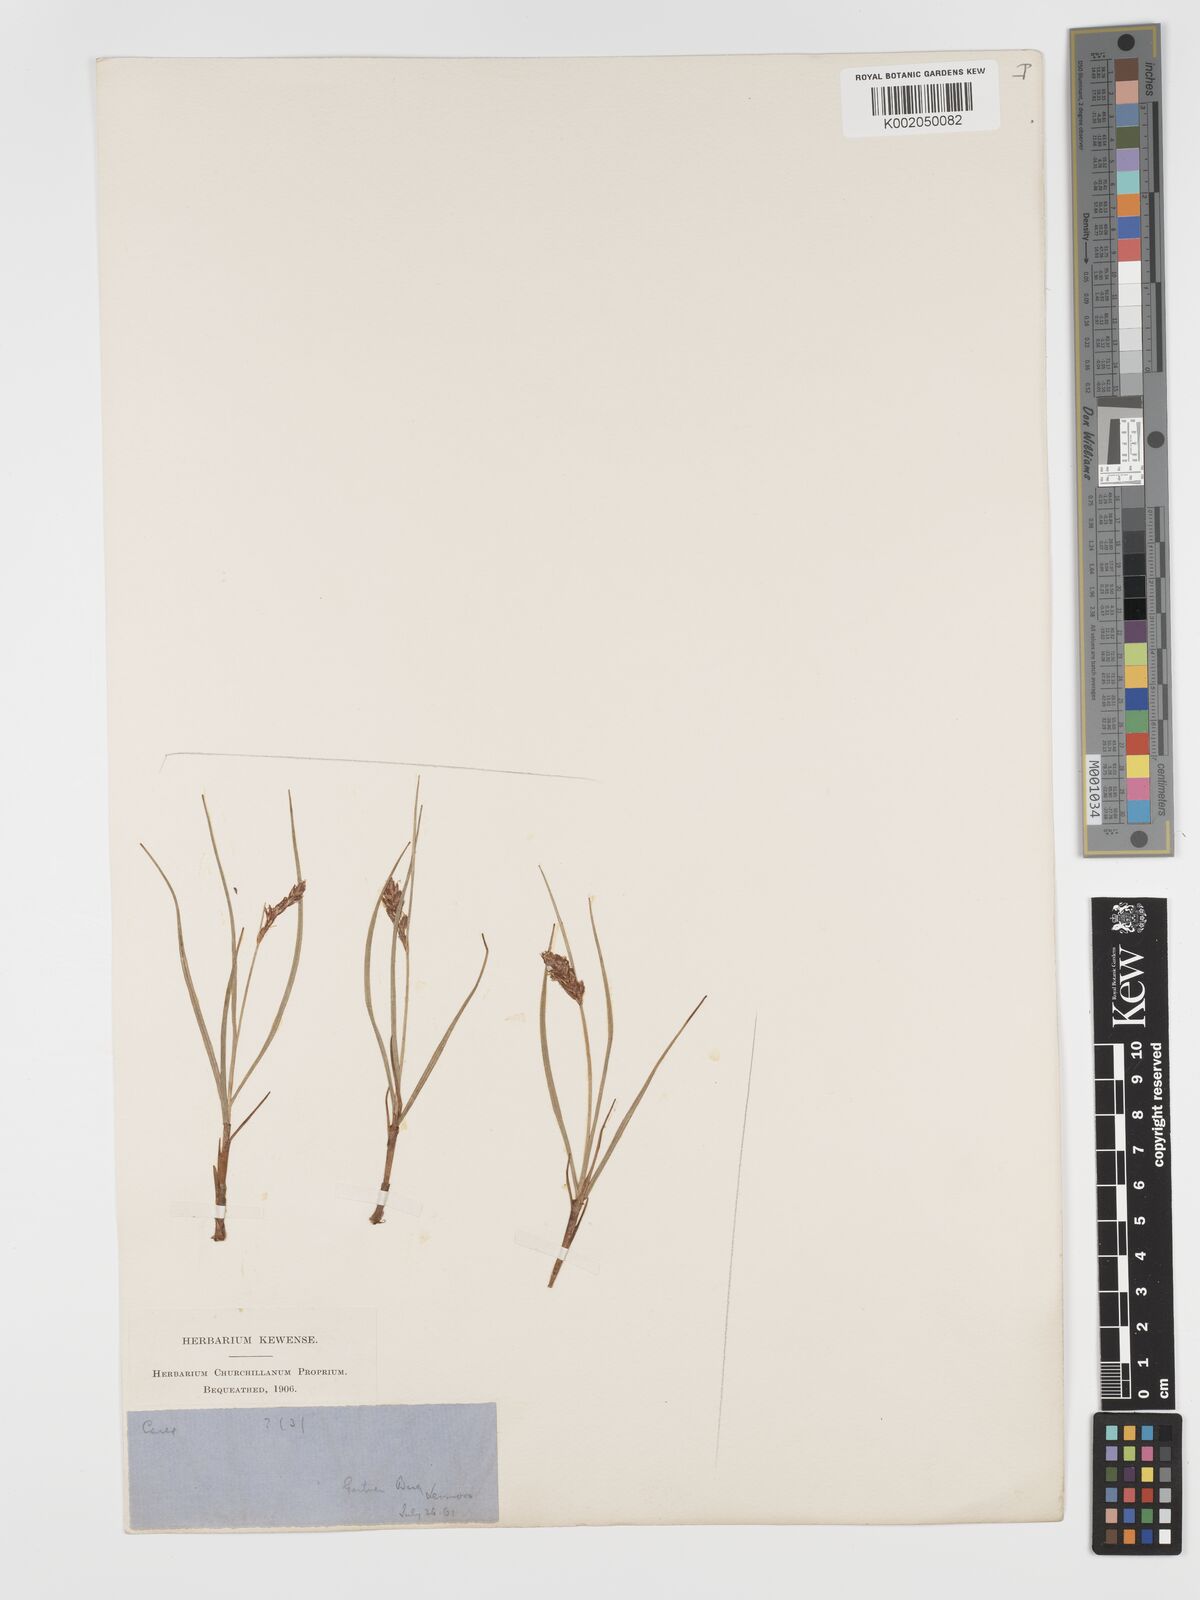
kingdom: Plantae
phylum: Tracheophyta
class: Liliopsida
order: Poales
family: Cyperaceae
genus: Blysmus
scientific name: Blysmus compressus
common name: Flat-sedge
